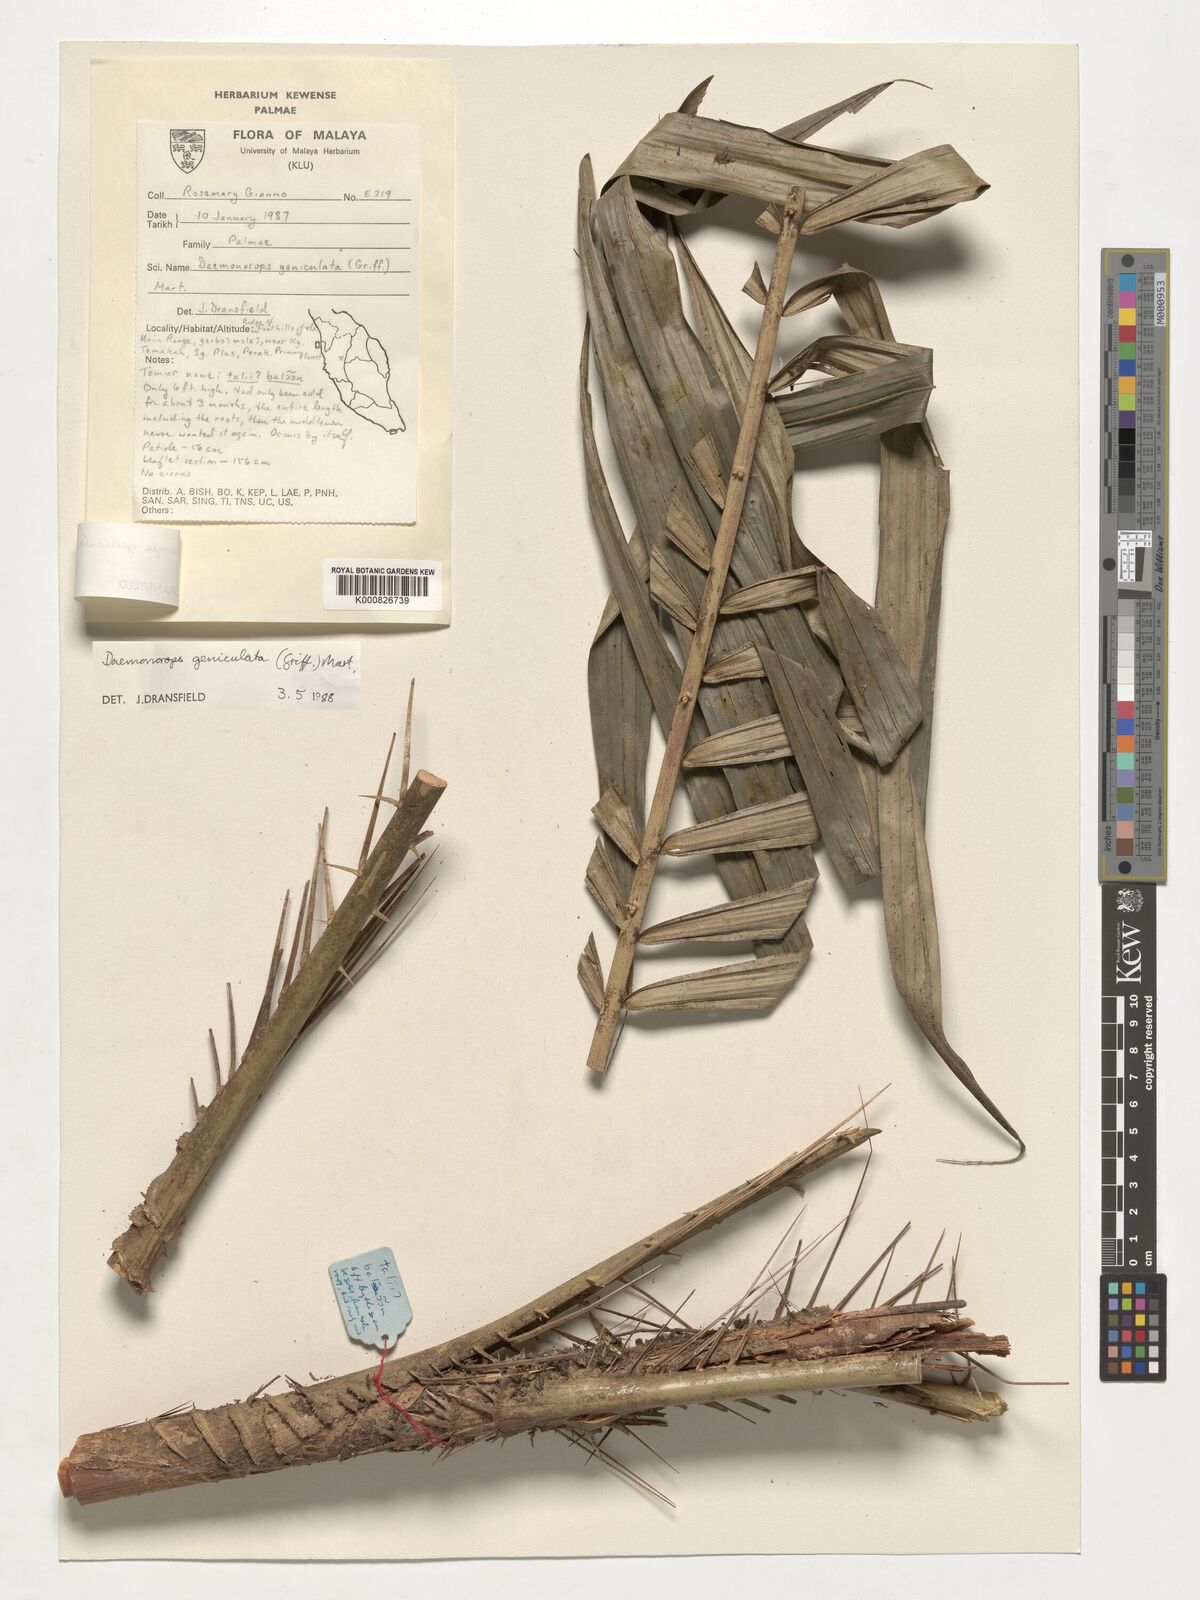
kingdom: Plantae
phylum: Tracheophyta
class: Liliopsida
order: Arecales
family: Arecaceae
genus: Calamus
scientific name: Calamus geniculatus
